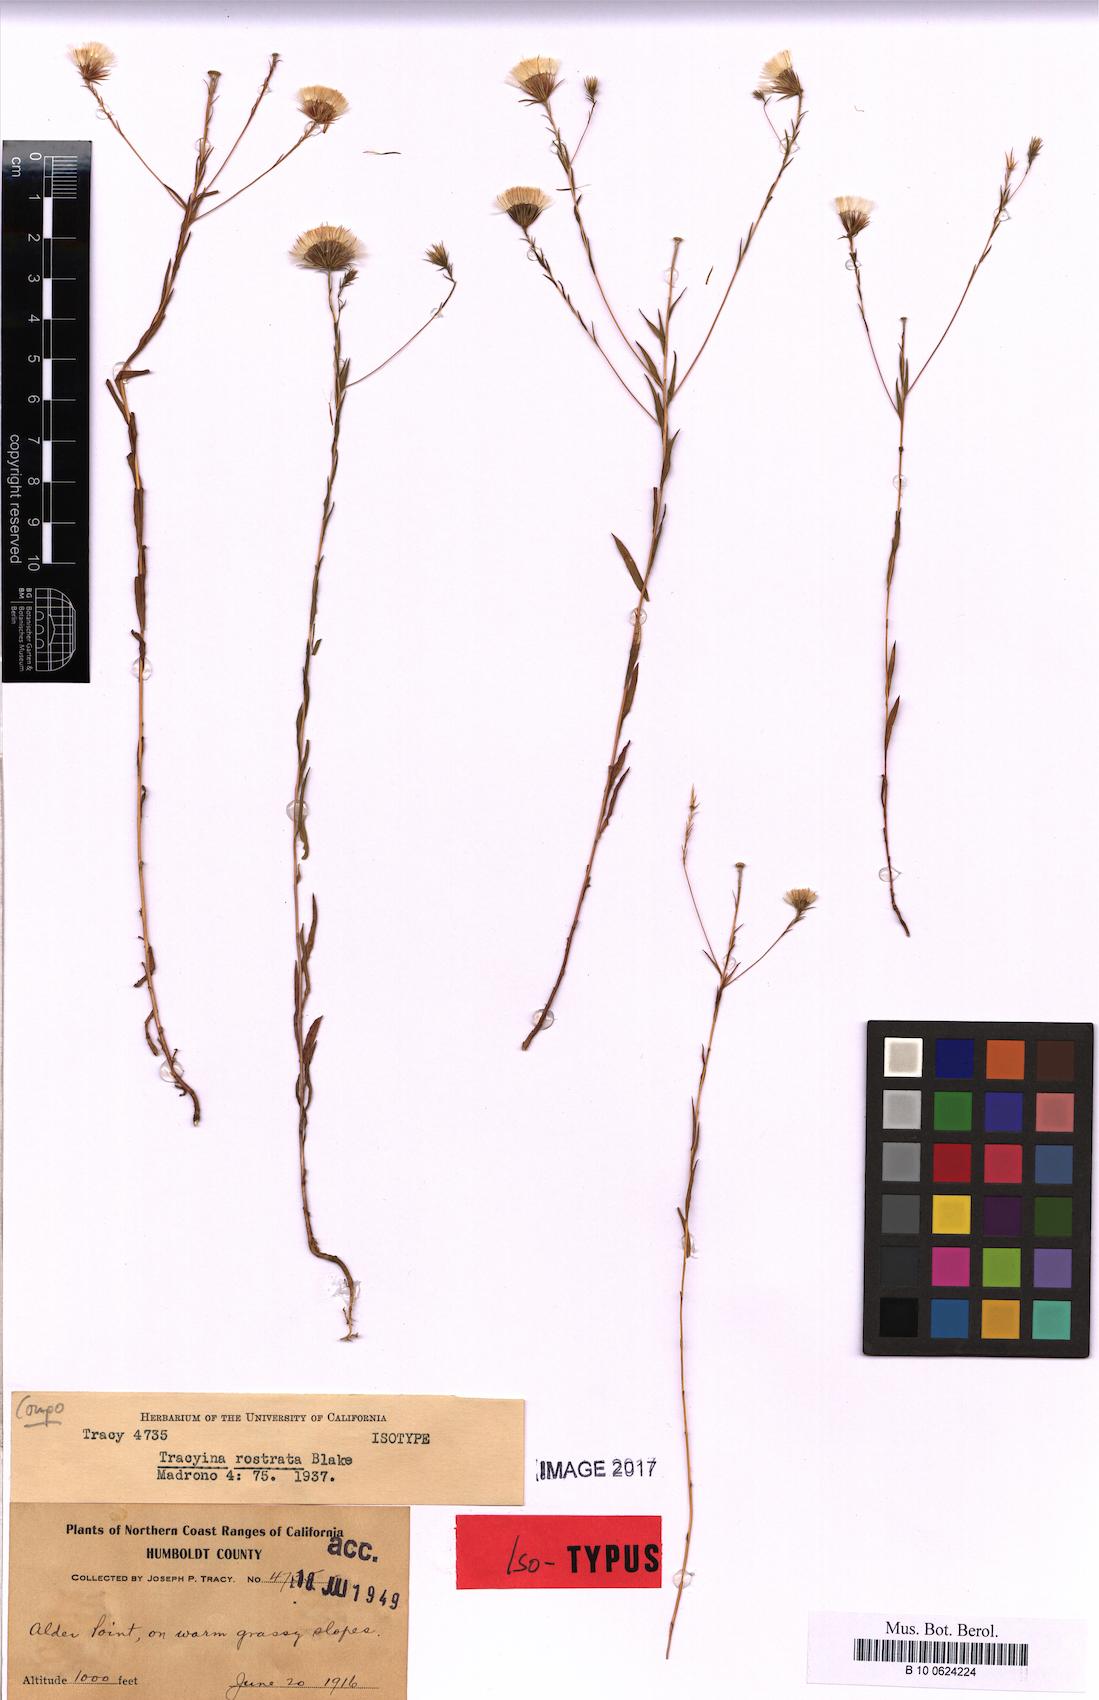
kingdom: Plantae
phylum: Tracheophyta
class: Magnoliopsida
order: Asterales
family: Asteraceae
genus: Tracyina
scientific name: Tracyina rostrata
